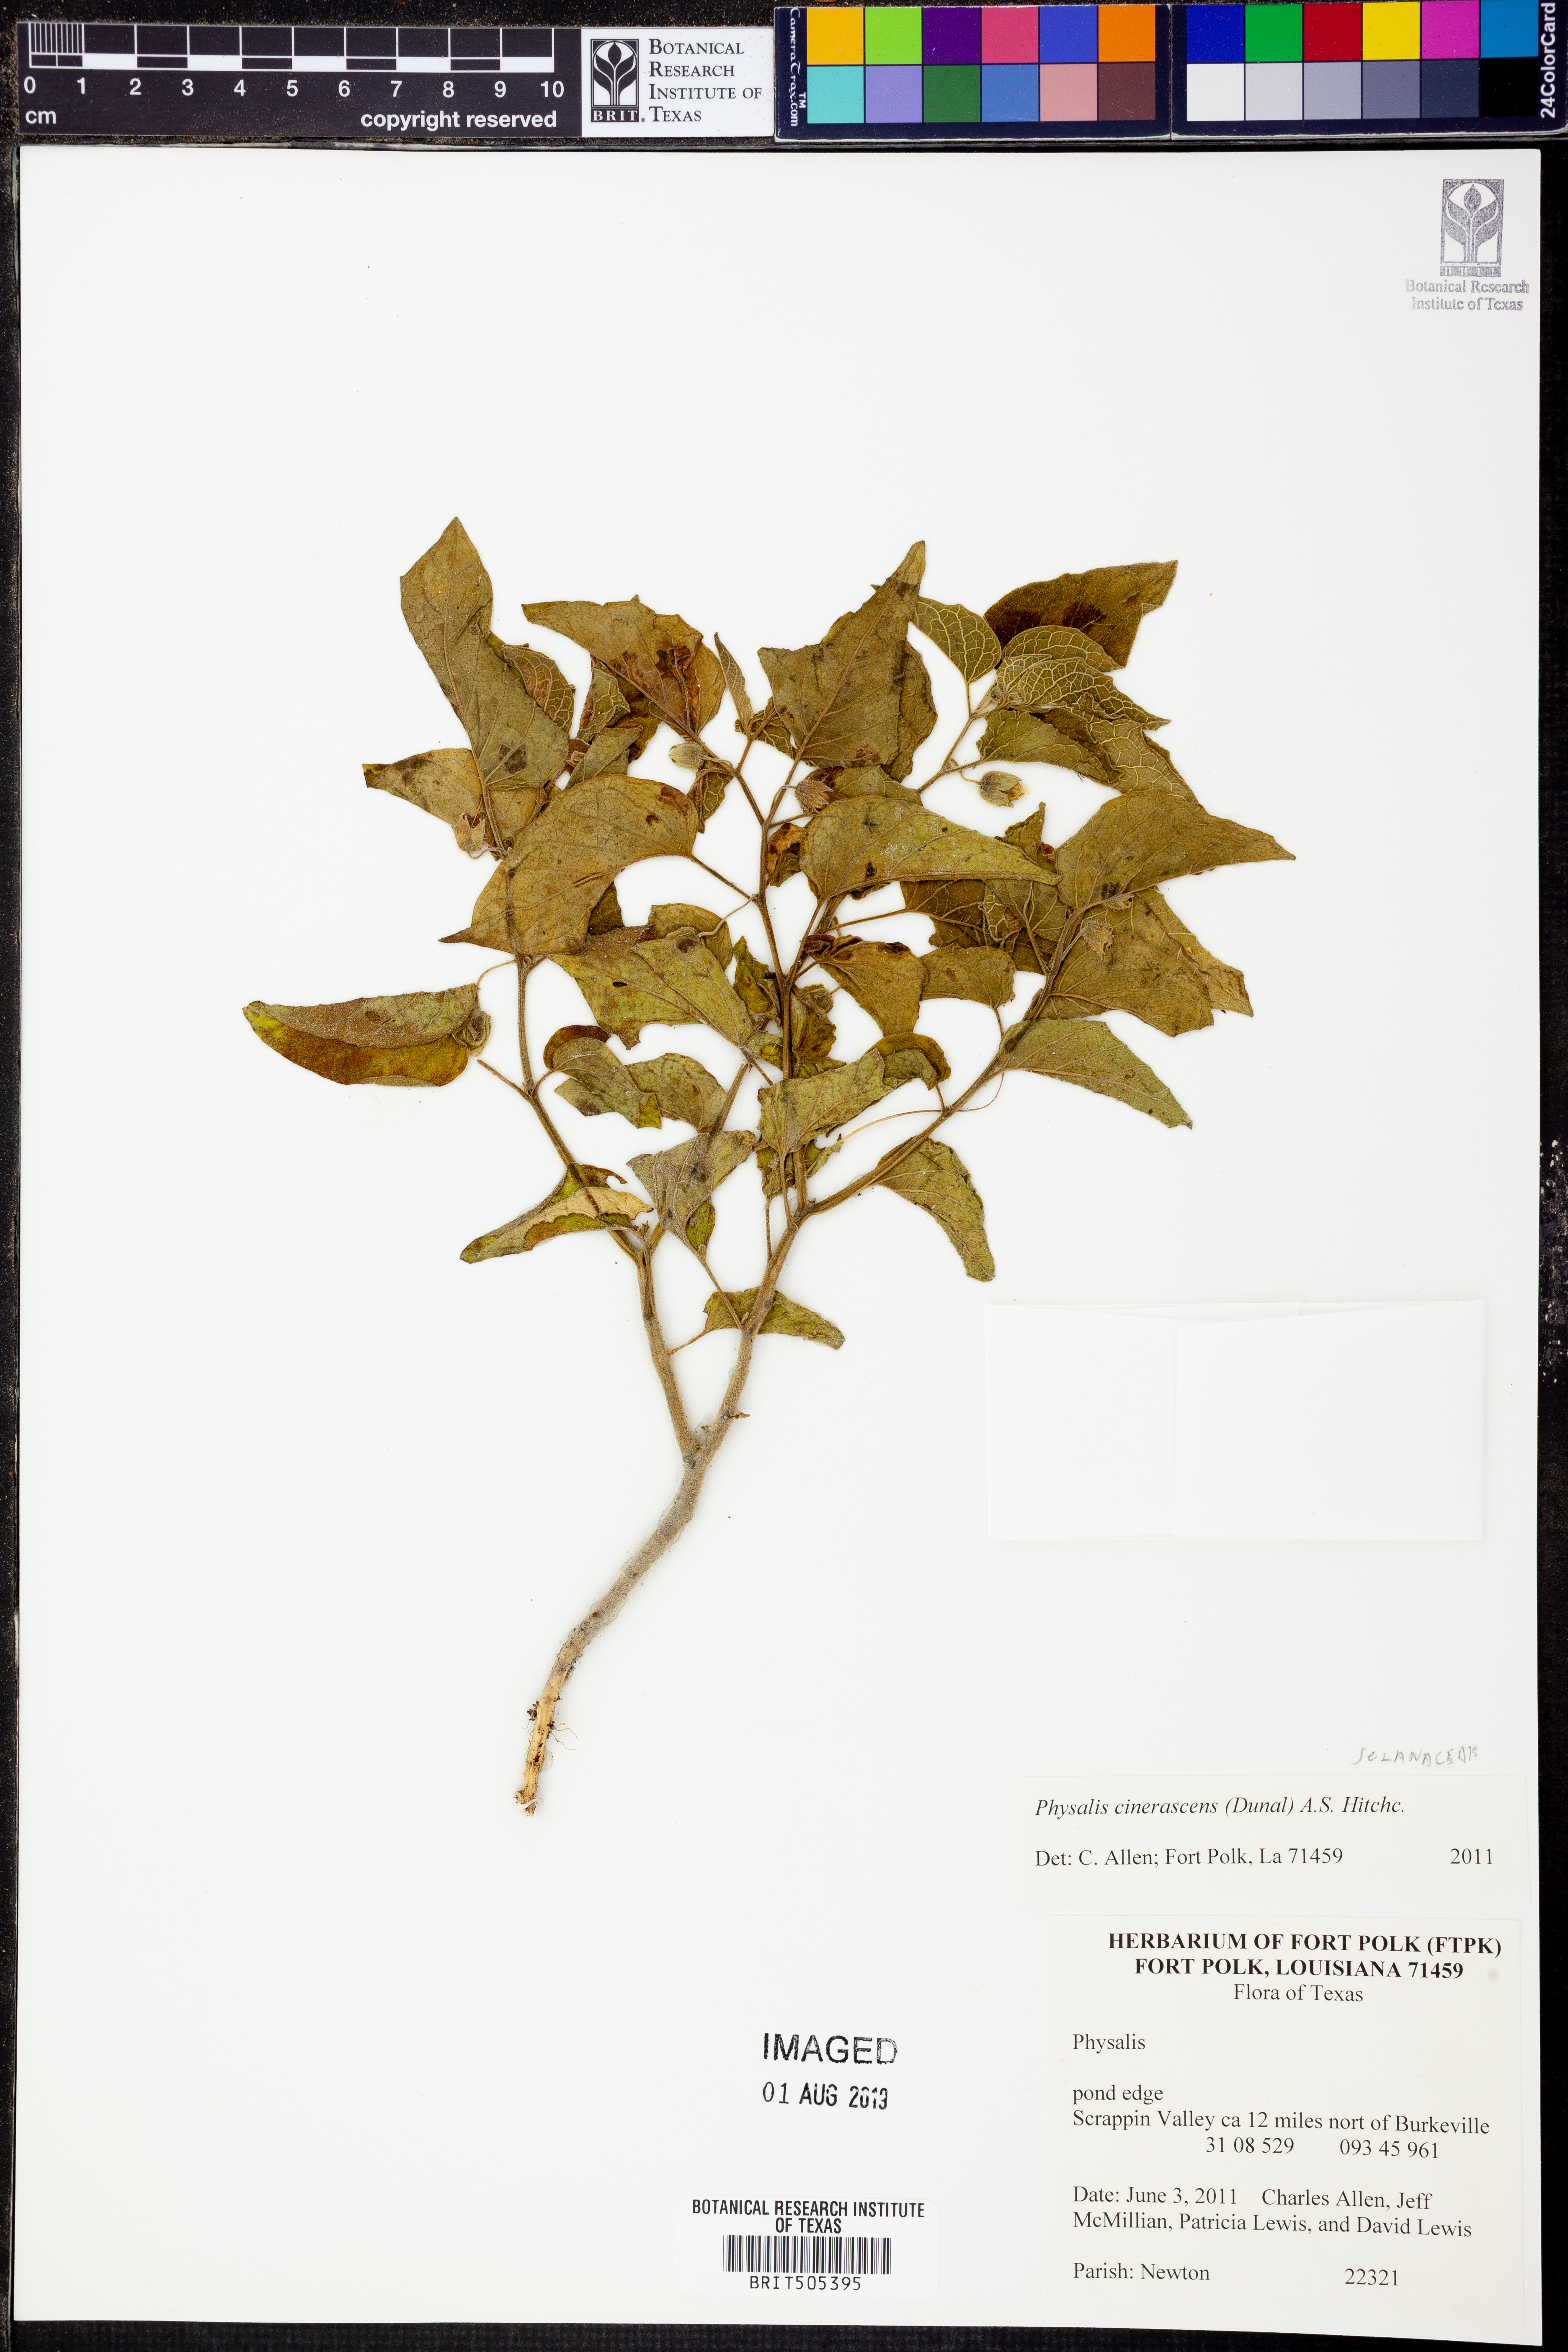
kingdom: Plantae
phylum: Tracheophyta
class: Magnoliopsida
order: Solanales
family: Solanaceae
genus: Physalis
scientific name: Physalis cinerascens
